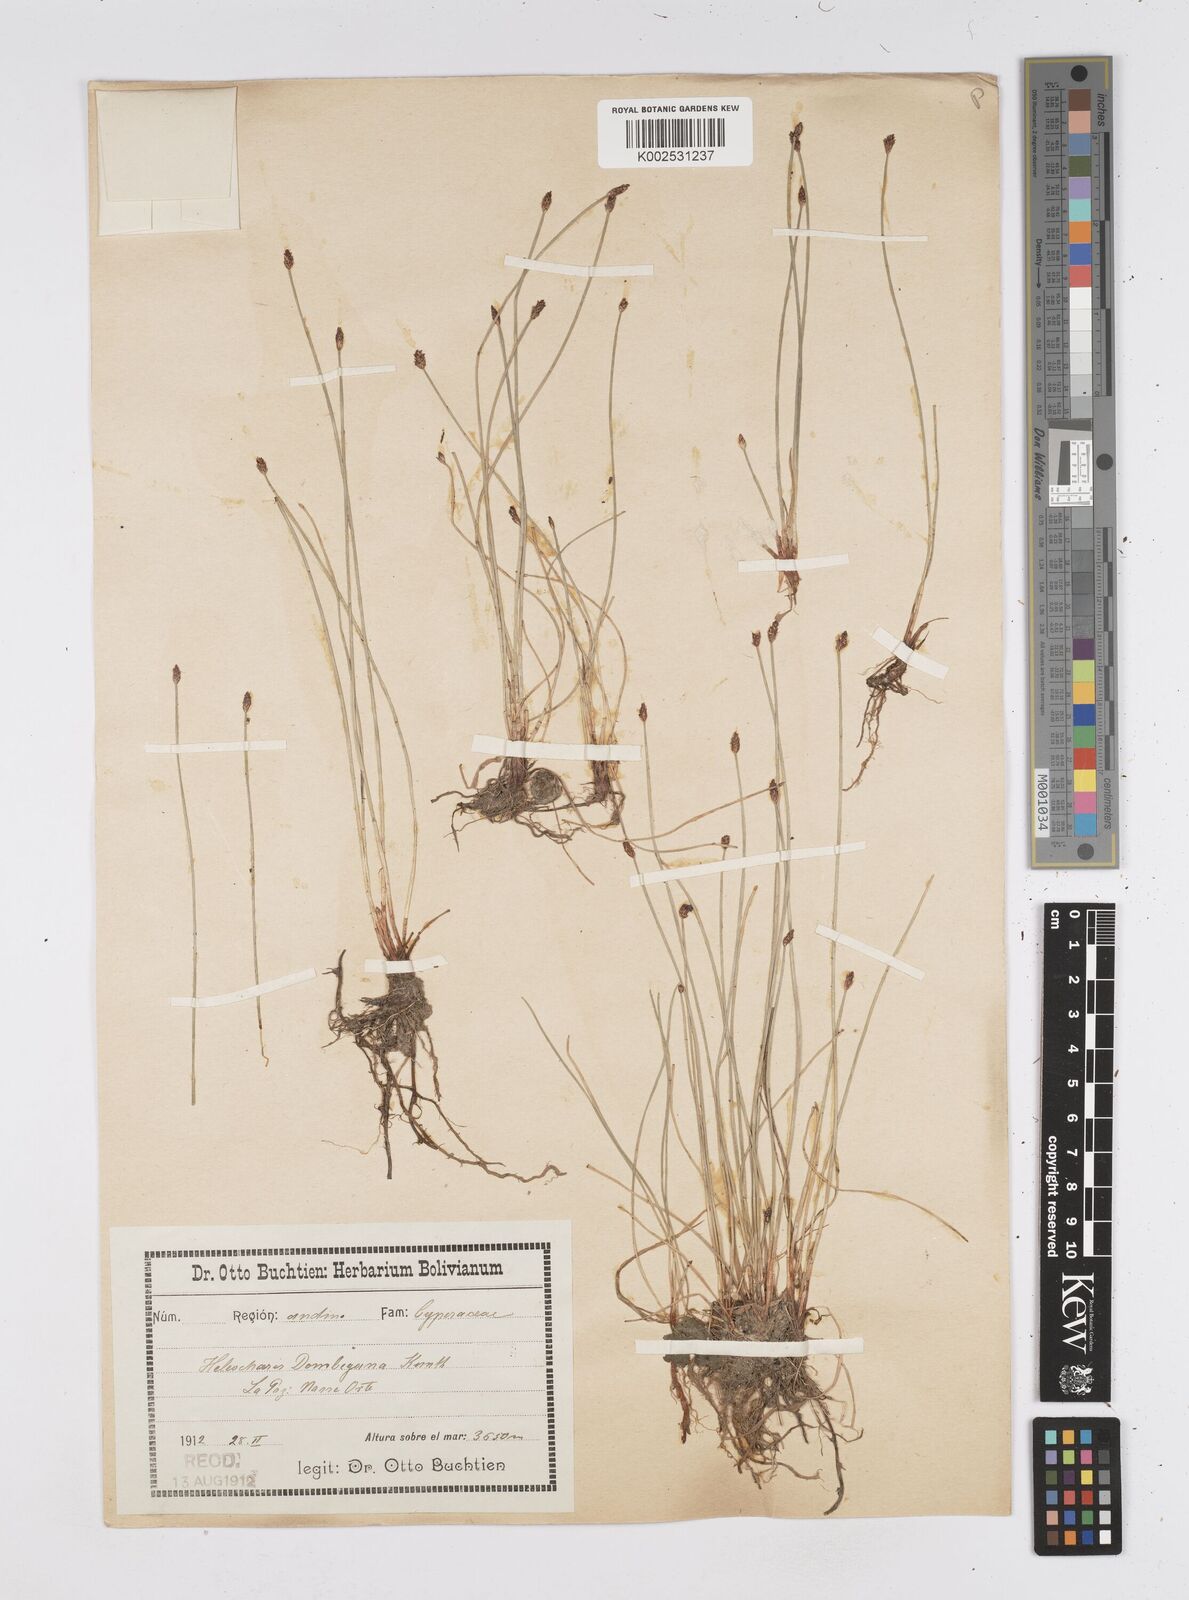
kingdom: Plantae
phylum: Tracheophyta
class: Liliopsida
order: Poales
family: Cyperaceae
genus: Eleocharis
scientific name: Eleocharis montana
